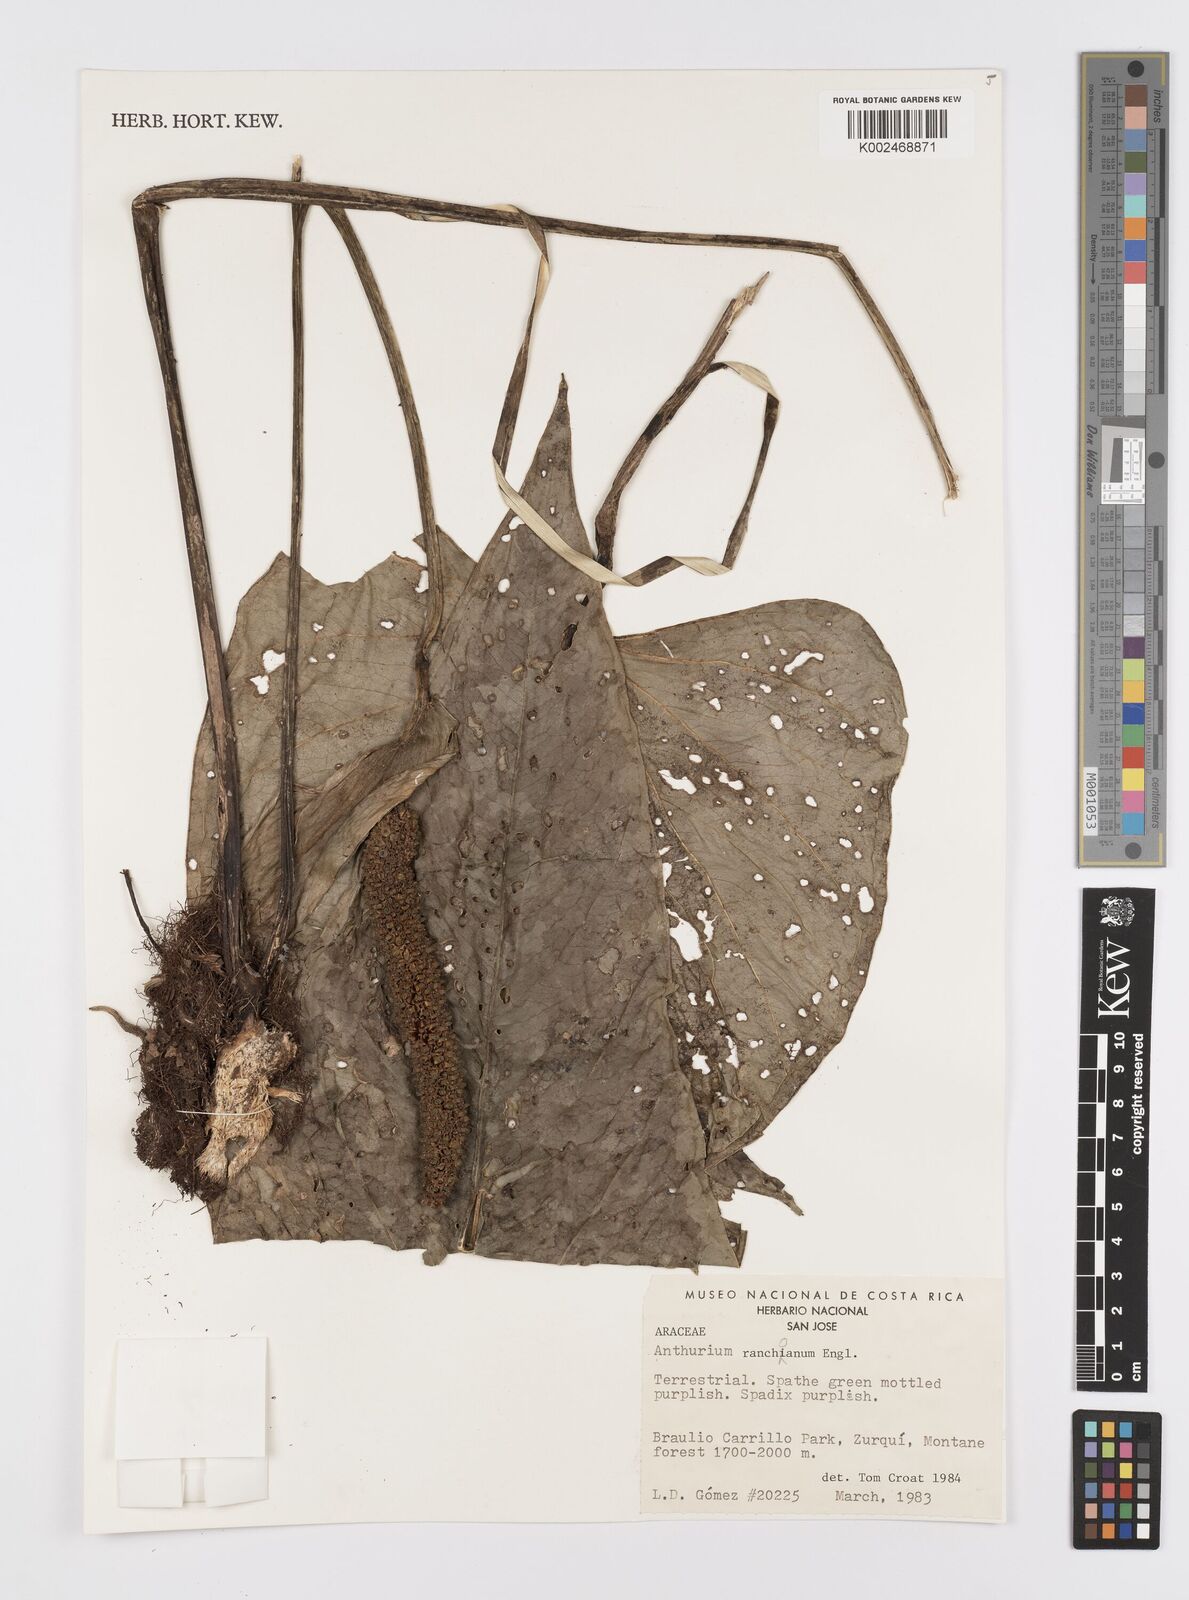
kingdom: Plantae
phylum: Tracheophyta
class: Liliopsida
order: Alismatales
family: Araceae
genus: Anthurium
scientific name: Anthurium ranchoanum
